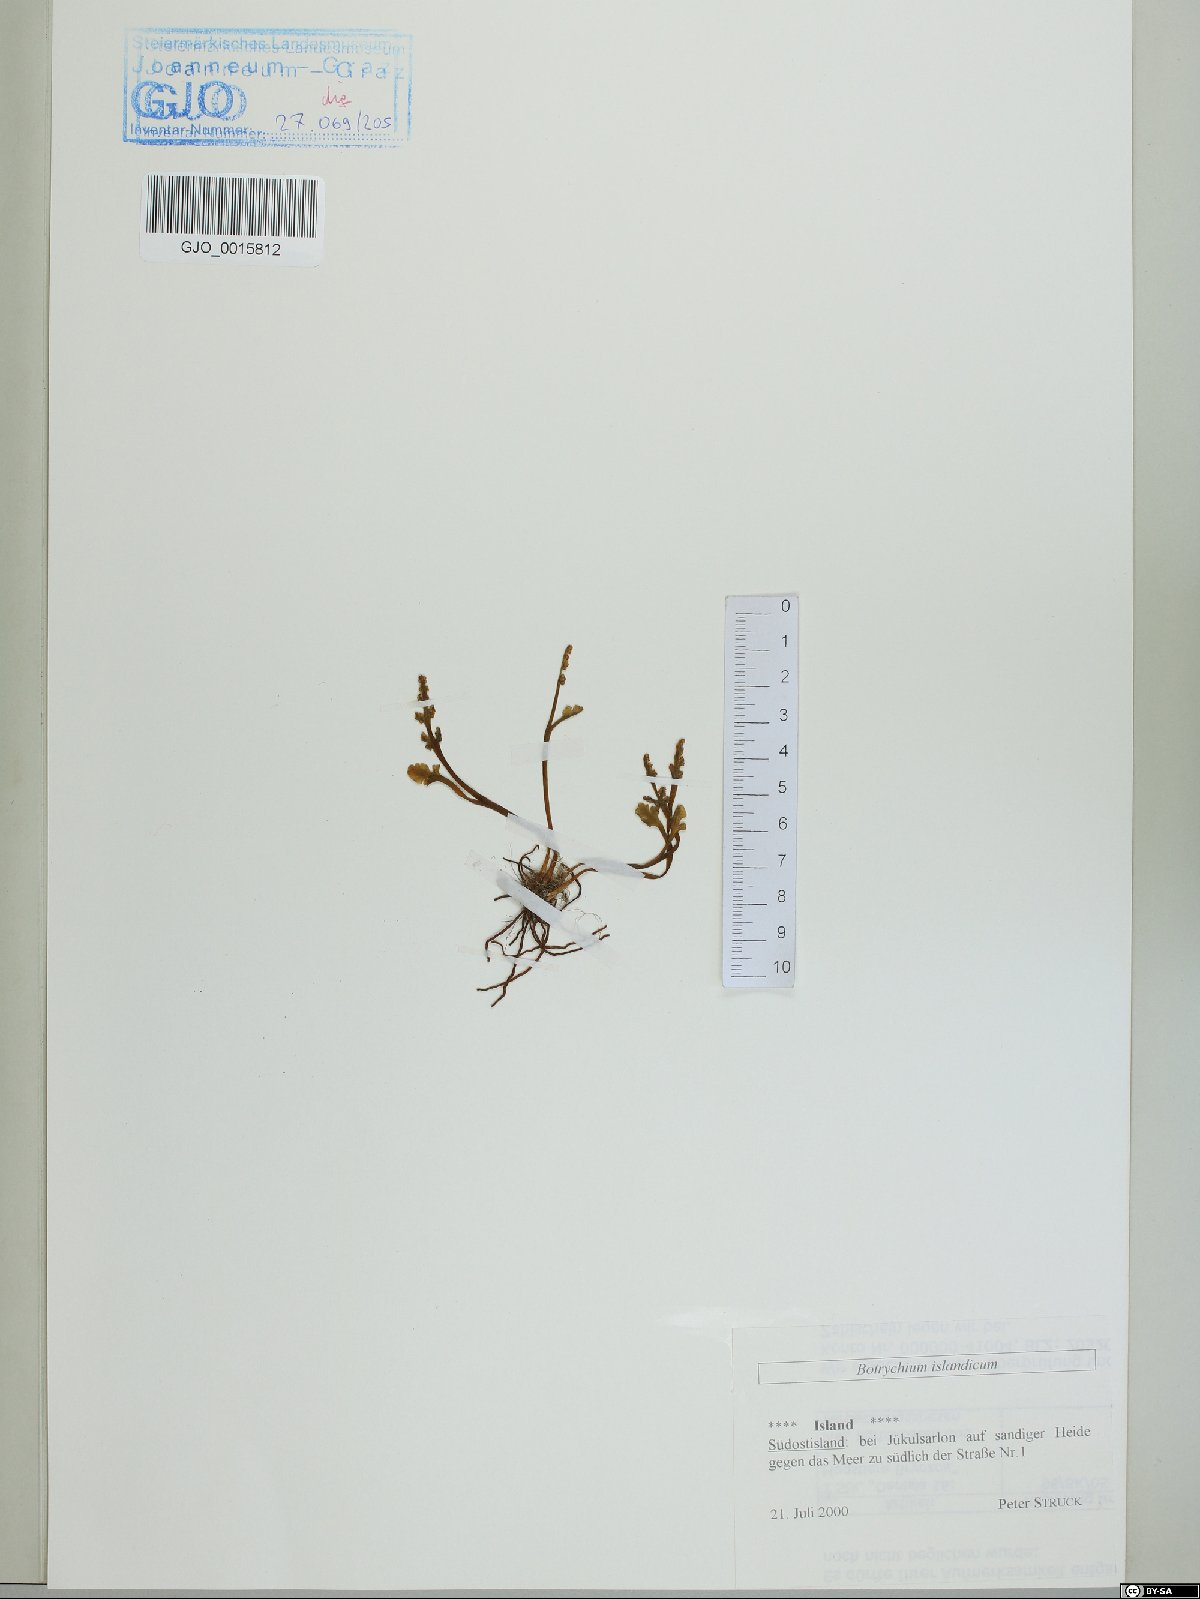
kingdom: Plantae
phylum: Tracheophyta
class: Polypodiopsida
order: Ophioglossales
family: Ophioglossaceae
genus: Botrychium
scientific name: Botrychium
